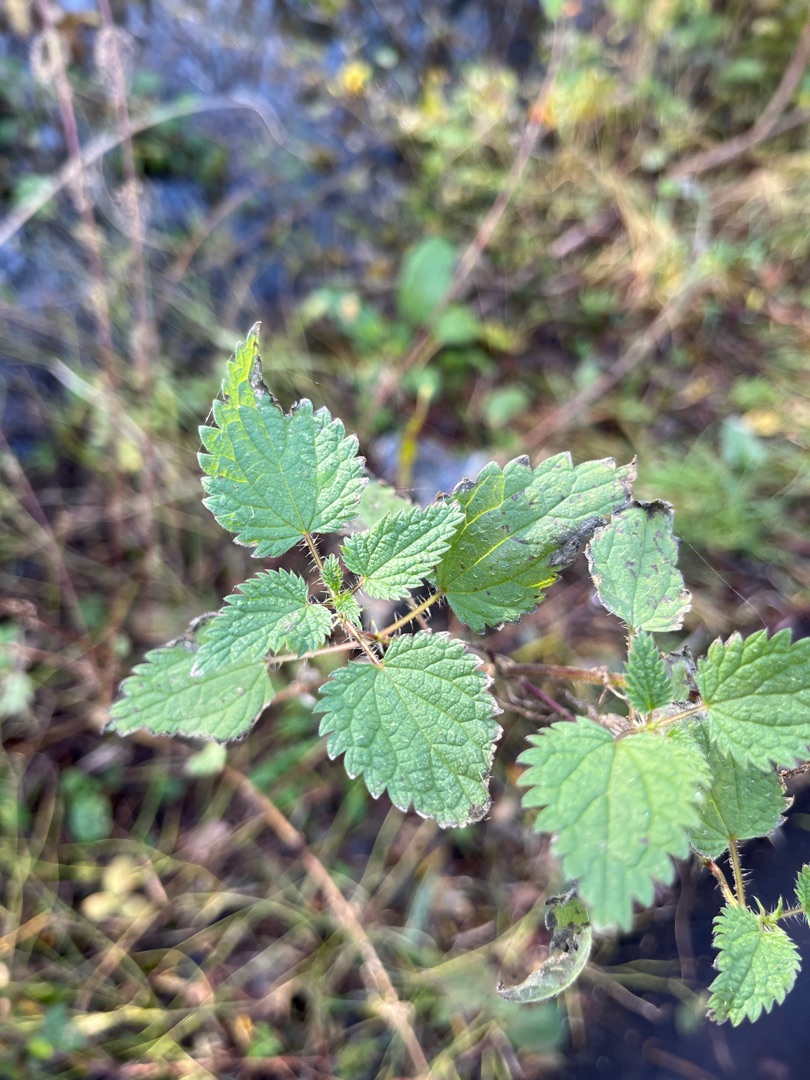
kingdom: Plantae
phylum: Tracheophyta
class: Magnoliopsida
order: Rosales
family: Urticaceae
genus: Urtica
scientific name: Urtica dioica
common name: Stor nælde
